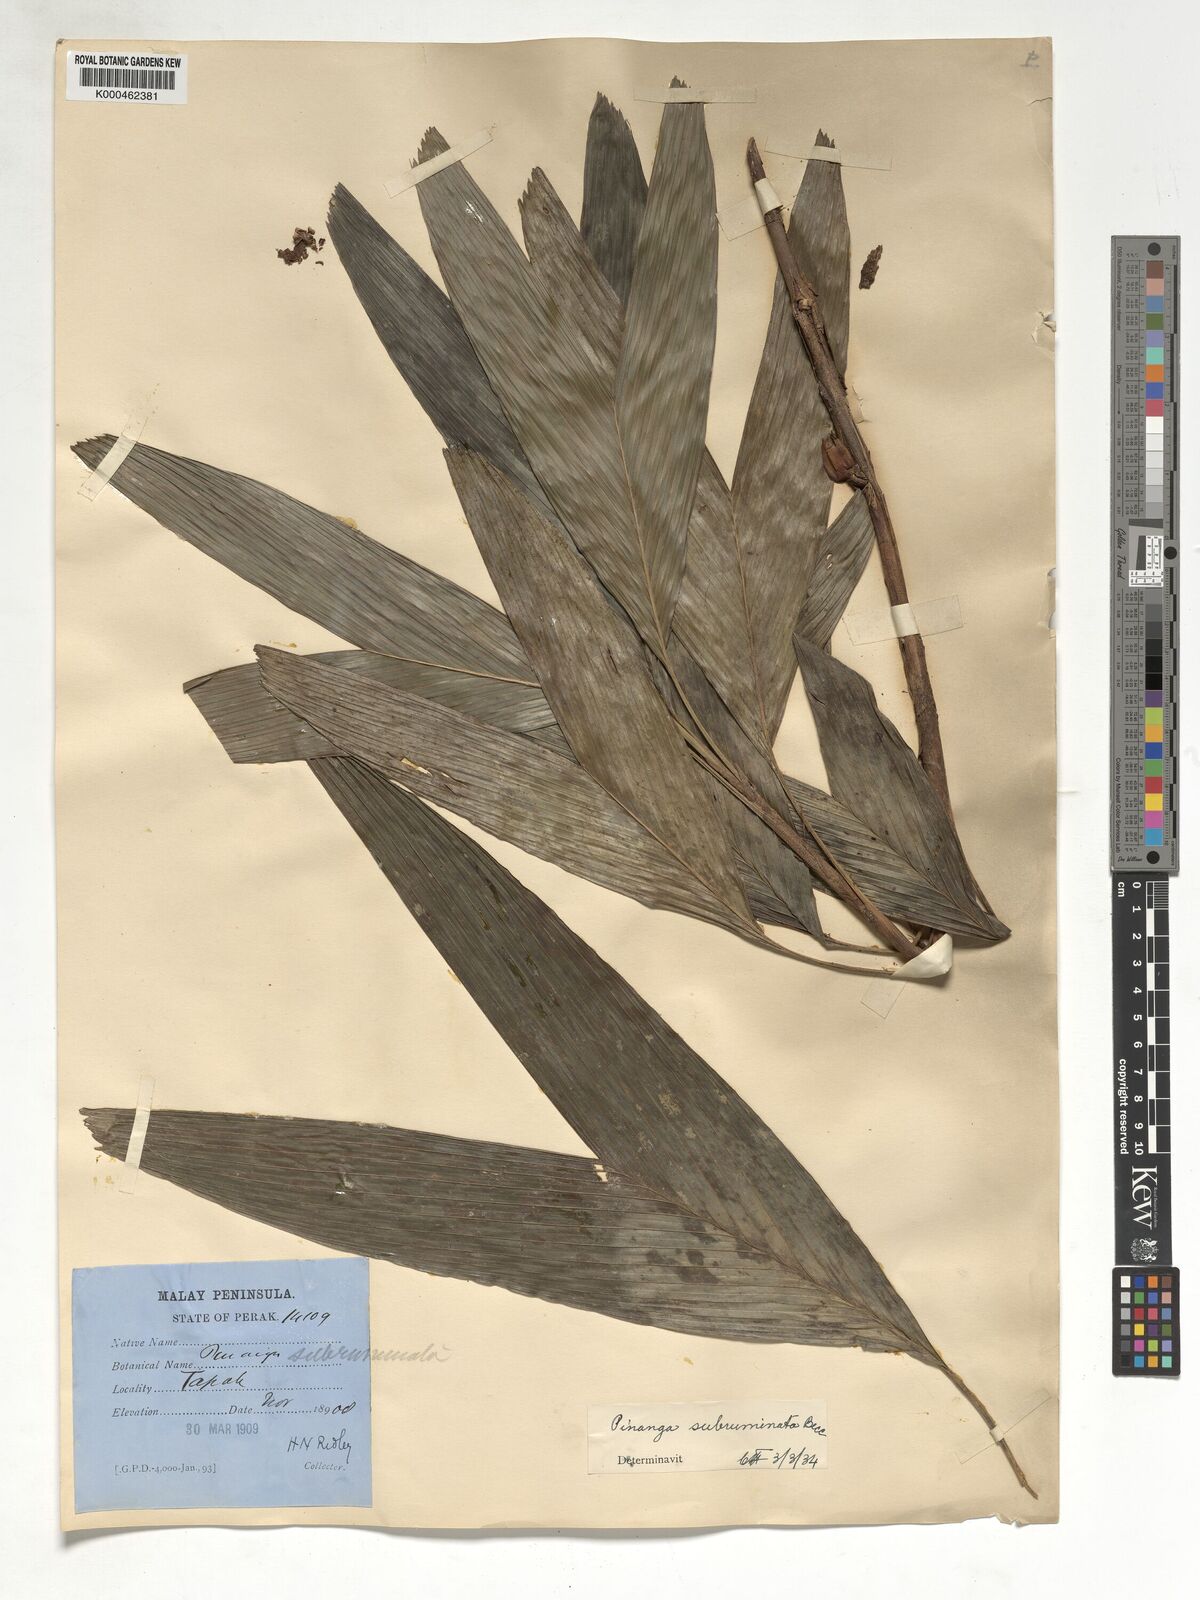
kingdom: Plantae
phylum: Tracheophyta
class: Liliopsida
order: Arecales
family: Arecaceae
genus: Pinanga
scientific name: Pinanga subruminata
